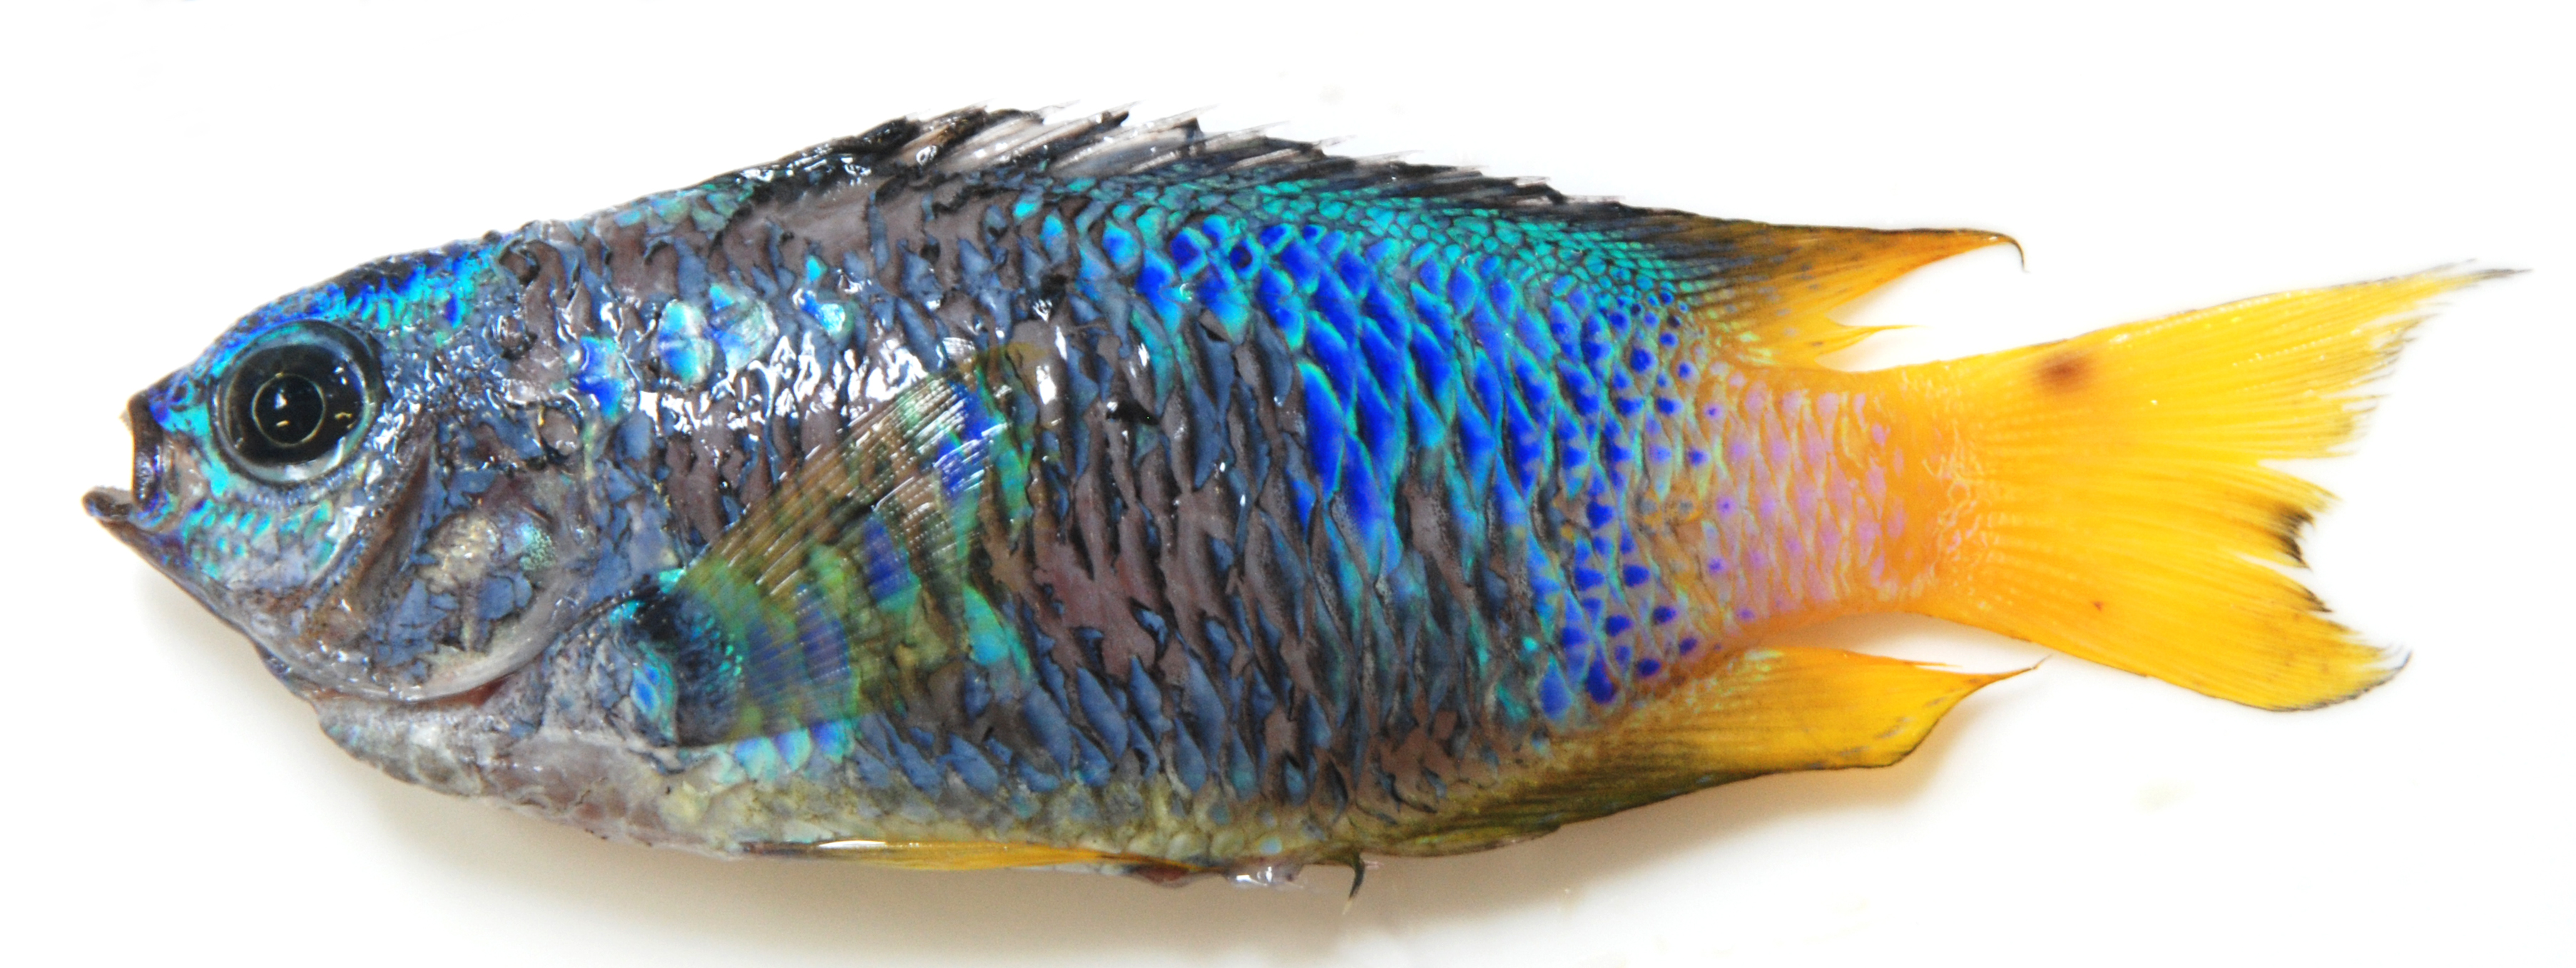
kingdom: Animalia
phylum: Chordata
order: Perciformes
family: Pomacentridae
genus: Pomacentrus
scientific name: Pomacentrus caeruleus
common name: Caerulean damsel
